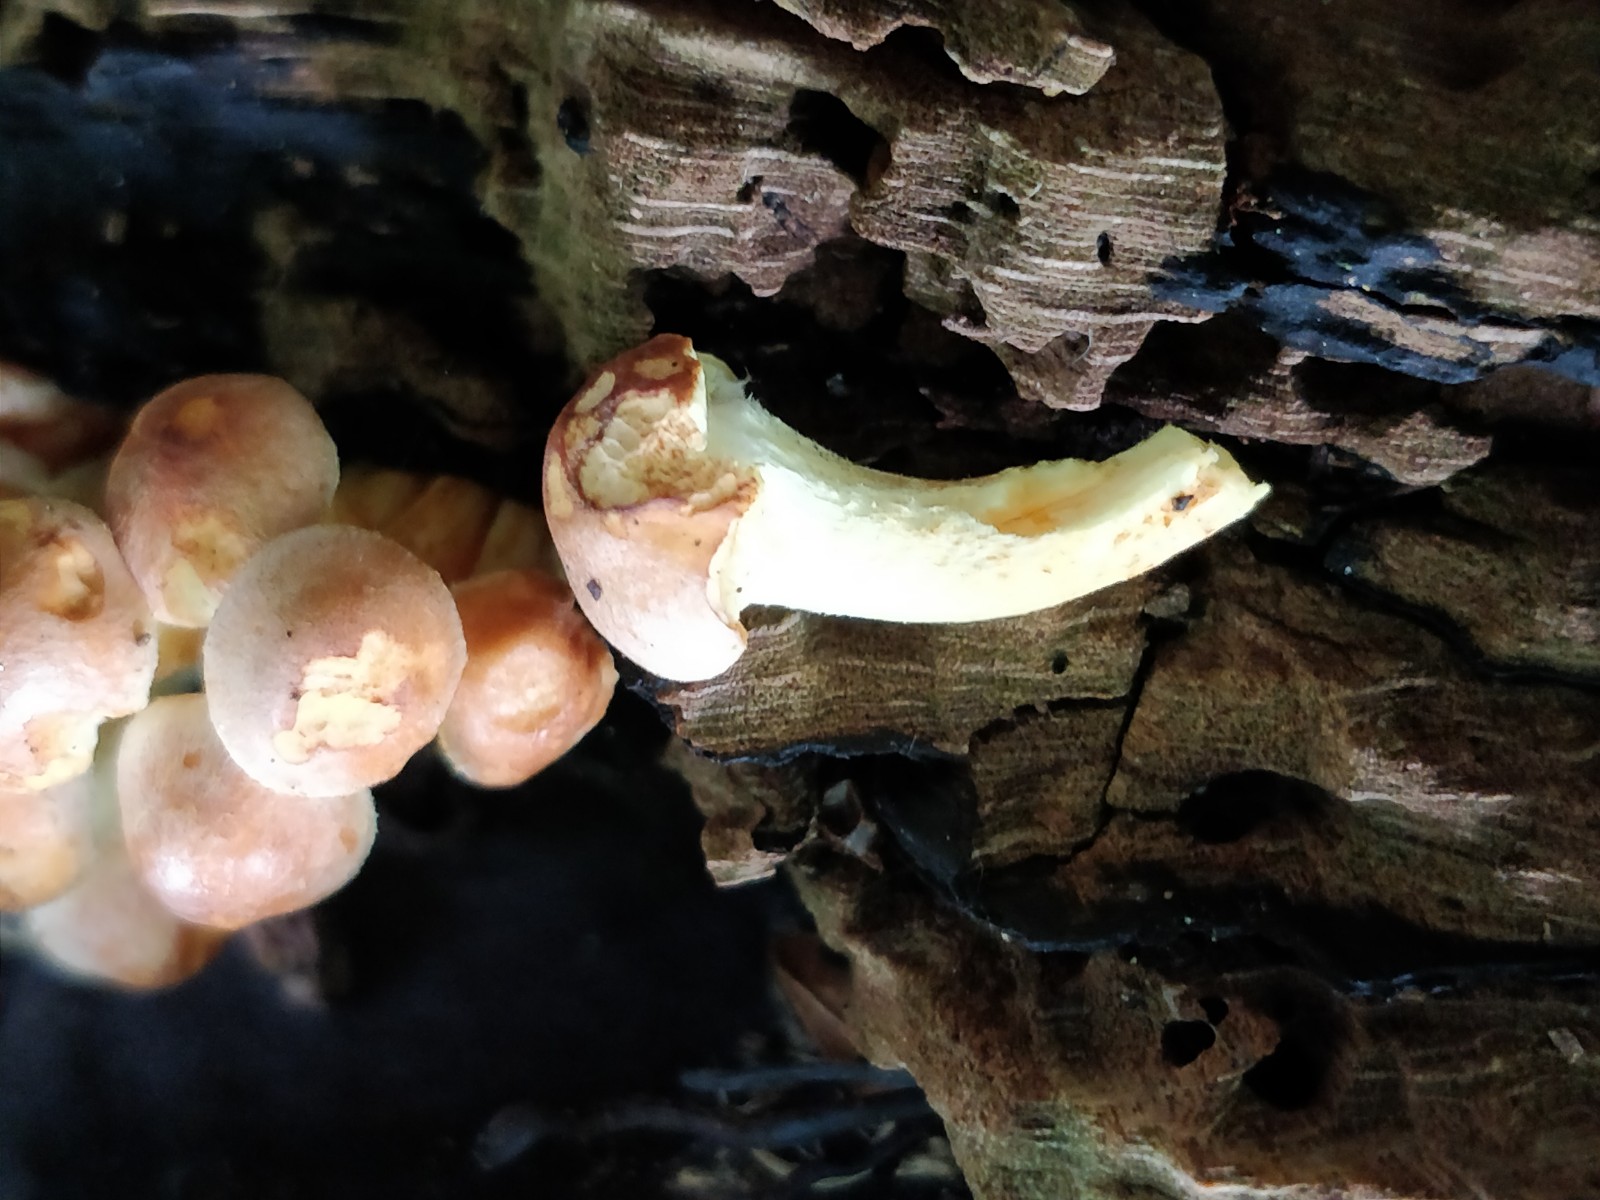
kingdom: Fungi
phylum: Basidiomycota
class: Agaricomycetes
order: Agaricales
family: Strophariaceae
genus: Hypholoma
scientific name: Hypholoma fasciculare
